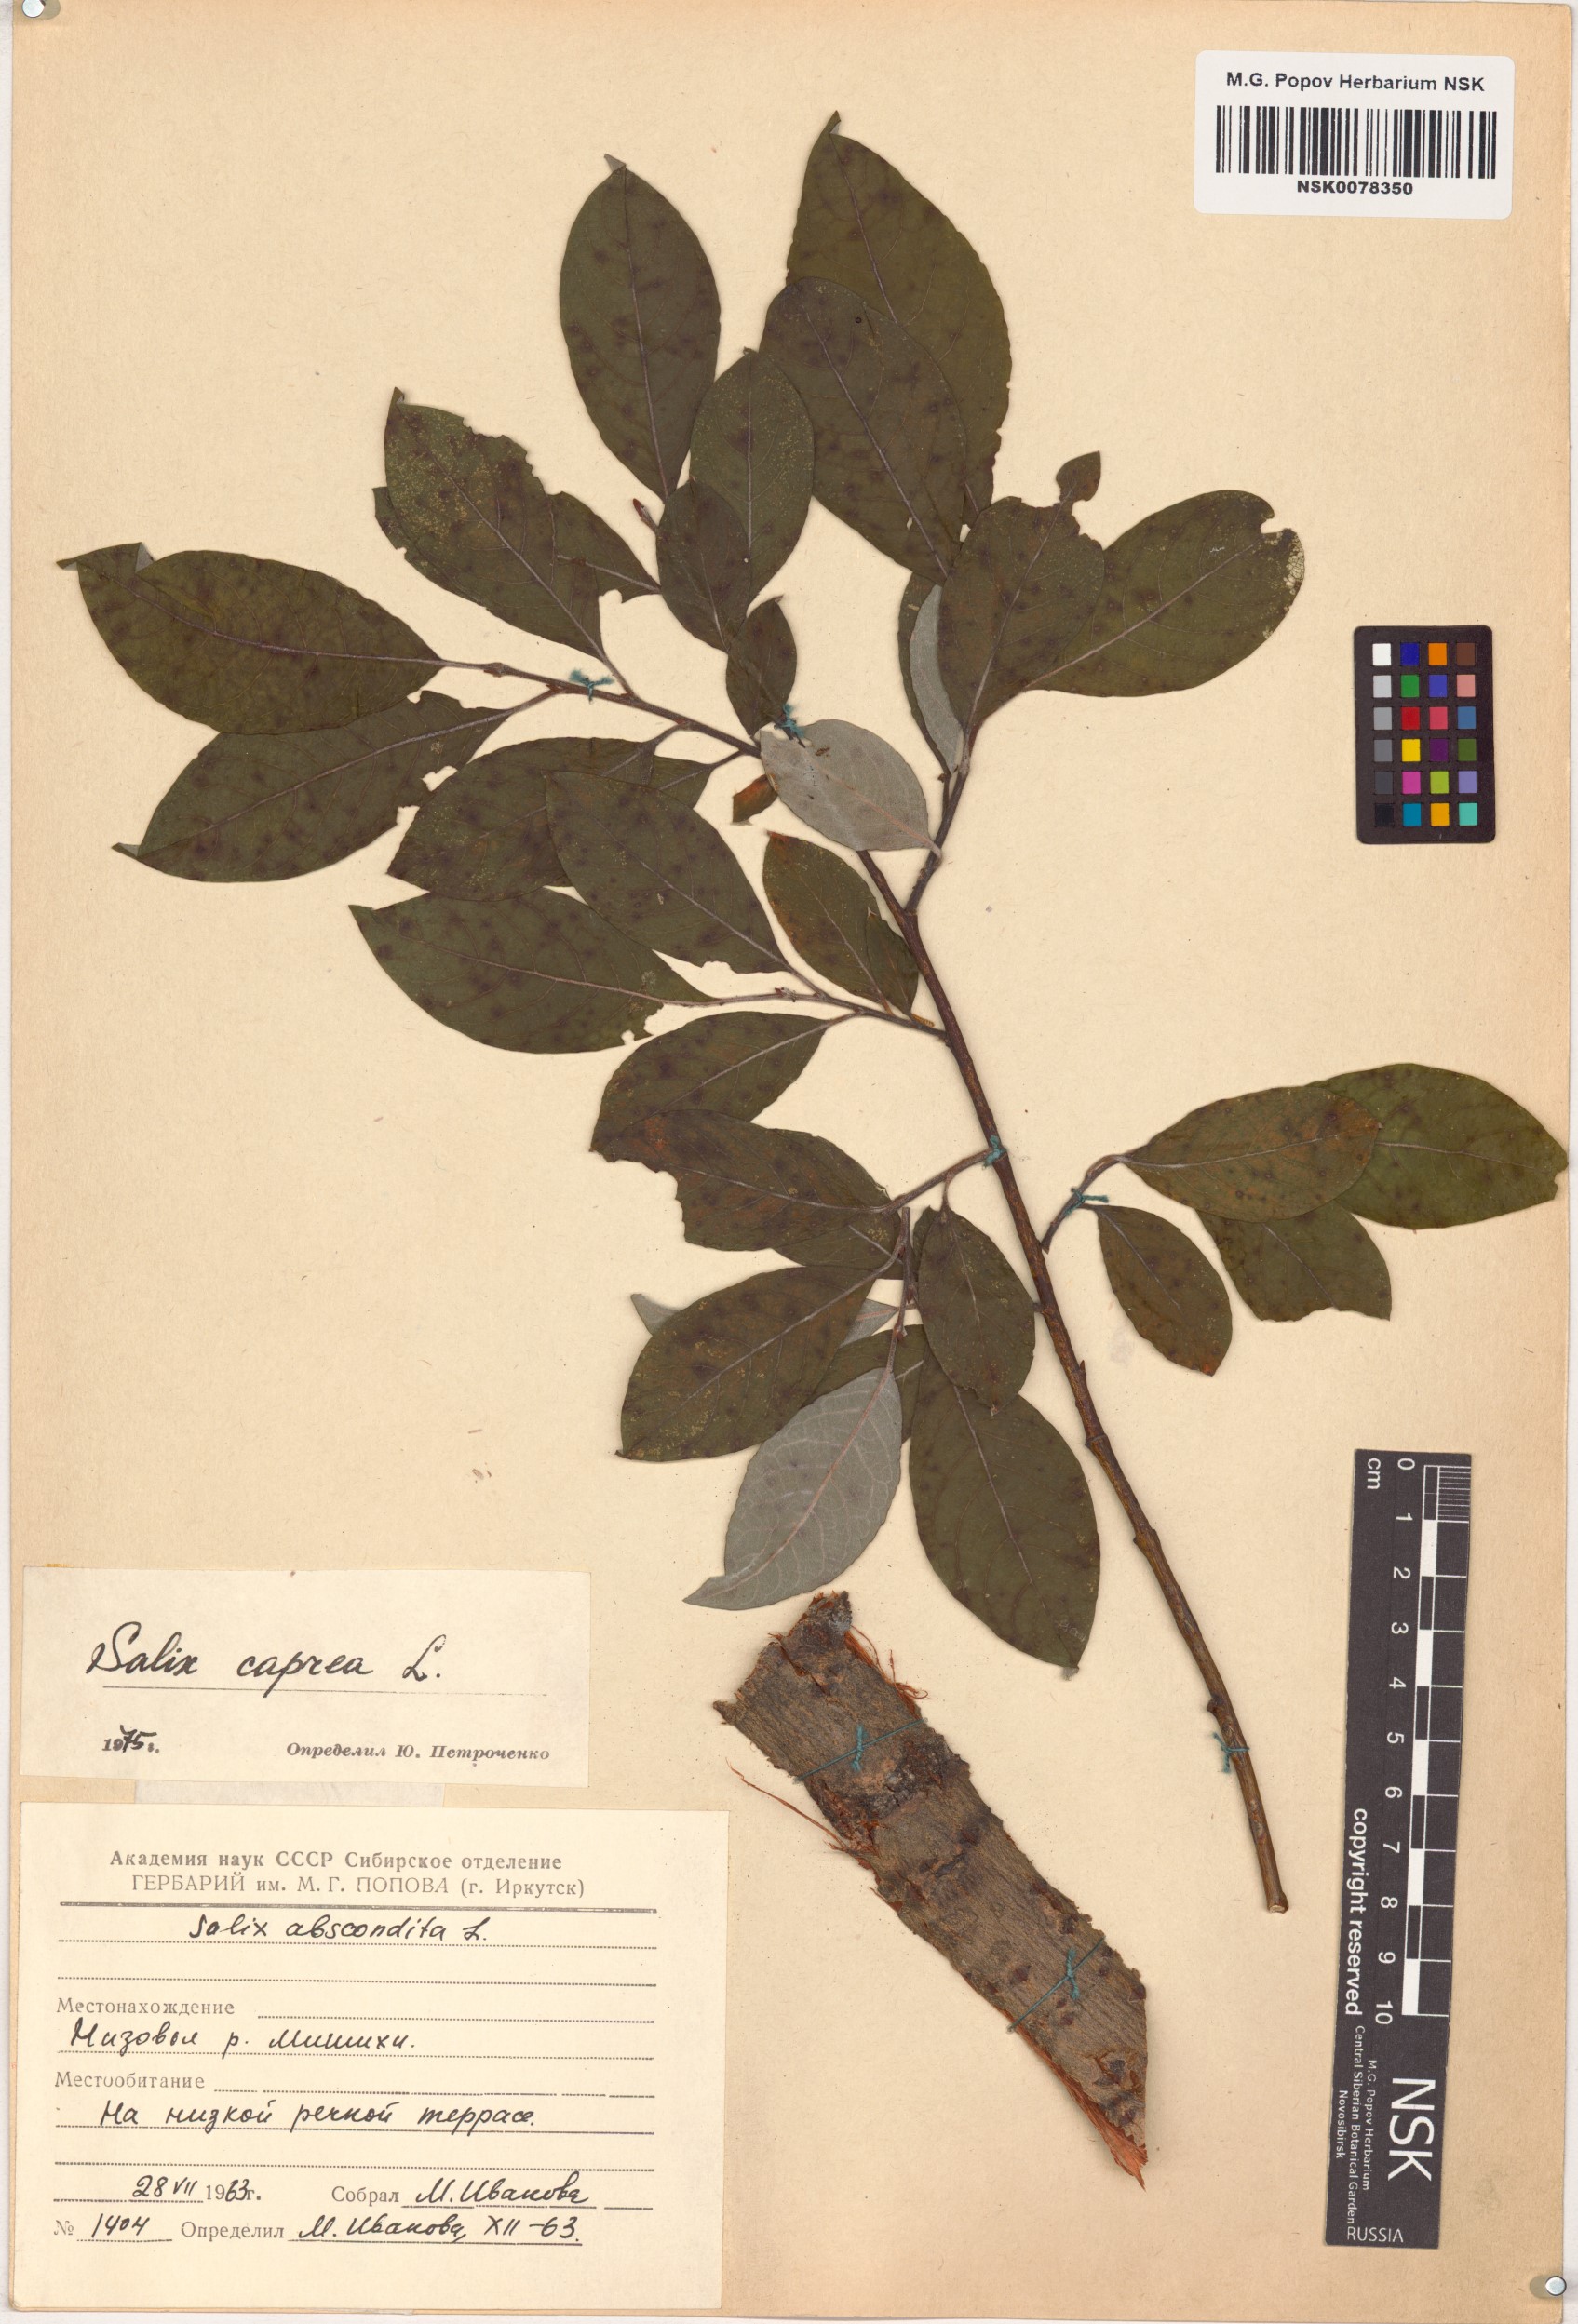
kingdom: Plantae
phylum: Tracheophyta
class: Magnoliopsida
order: Malpighiales
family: Salicaceae
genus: Salix
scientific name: Salix caprea
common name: Goat willow
